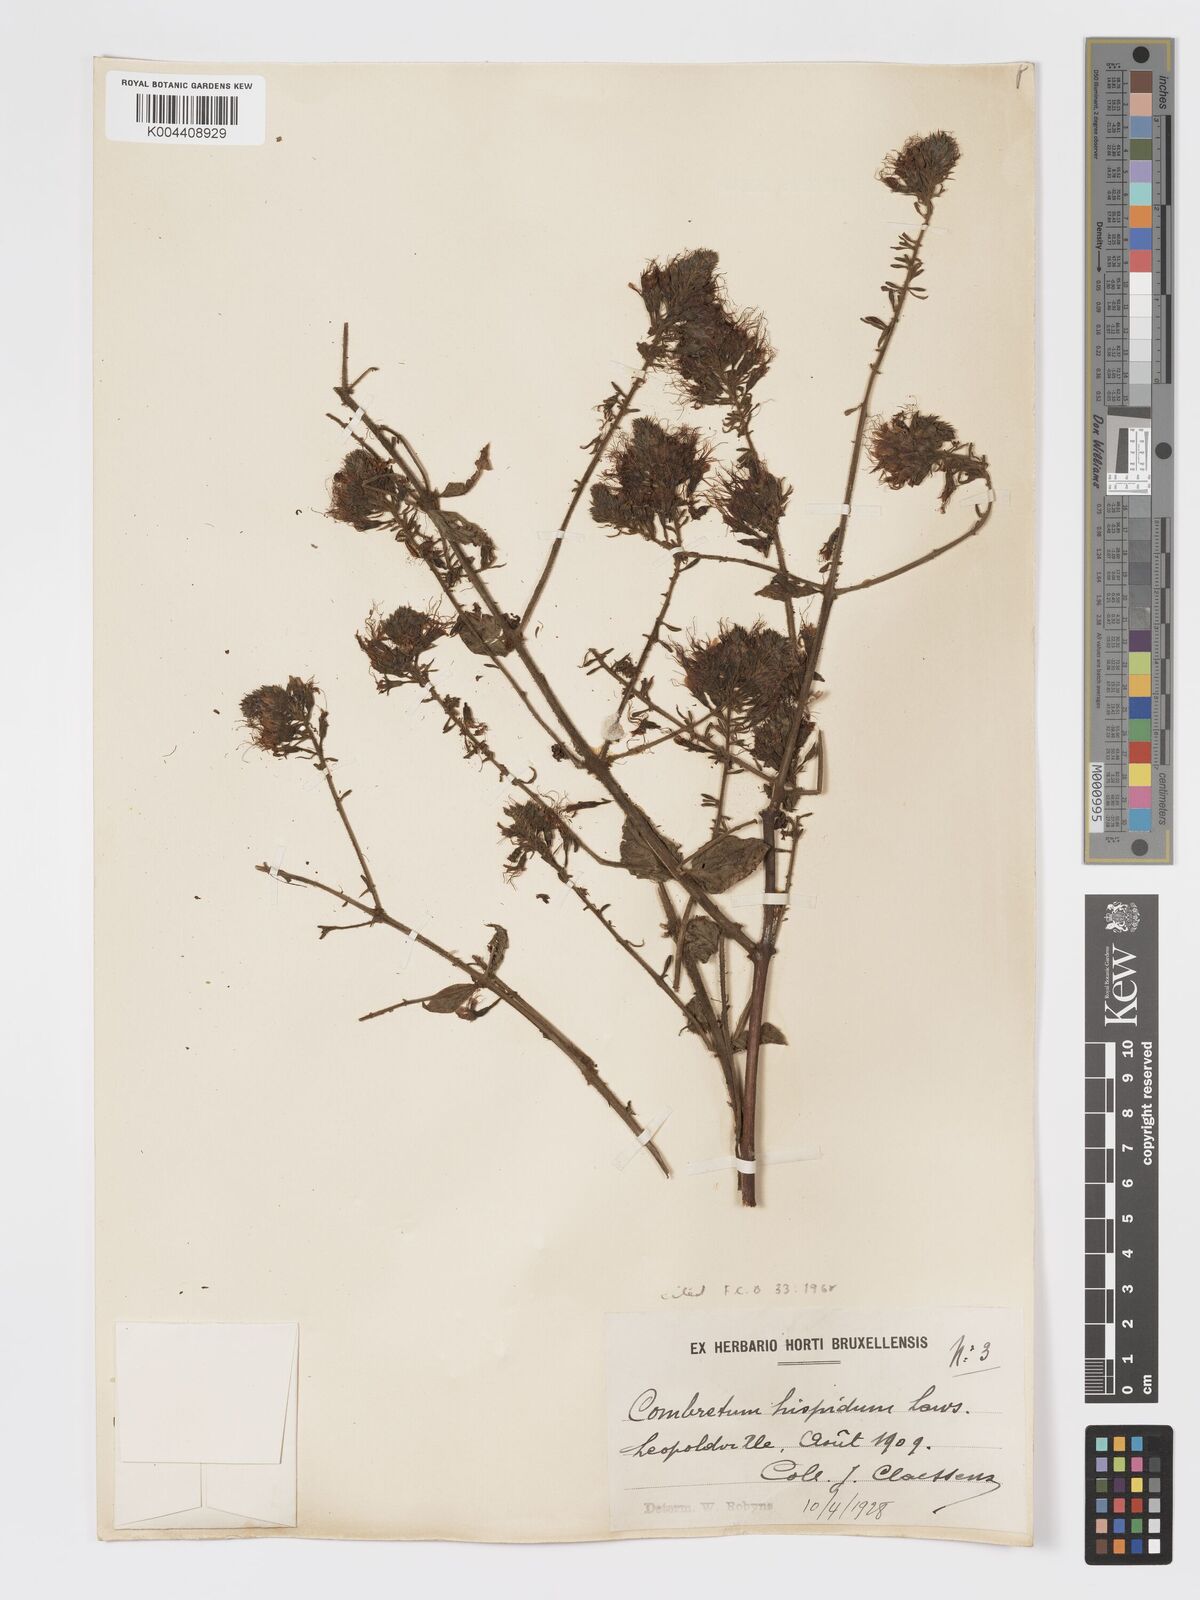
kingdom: Plantae
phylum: Tracheophyta
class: Magnoliopsida
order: Myrtales
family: Combretaceae
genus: Combretum
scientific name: Combretum comosum
